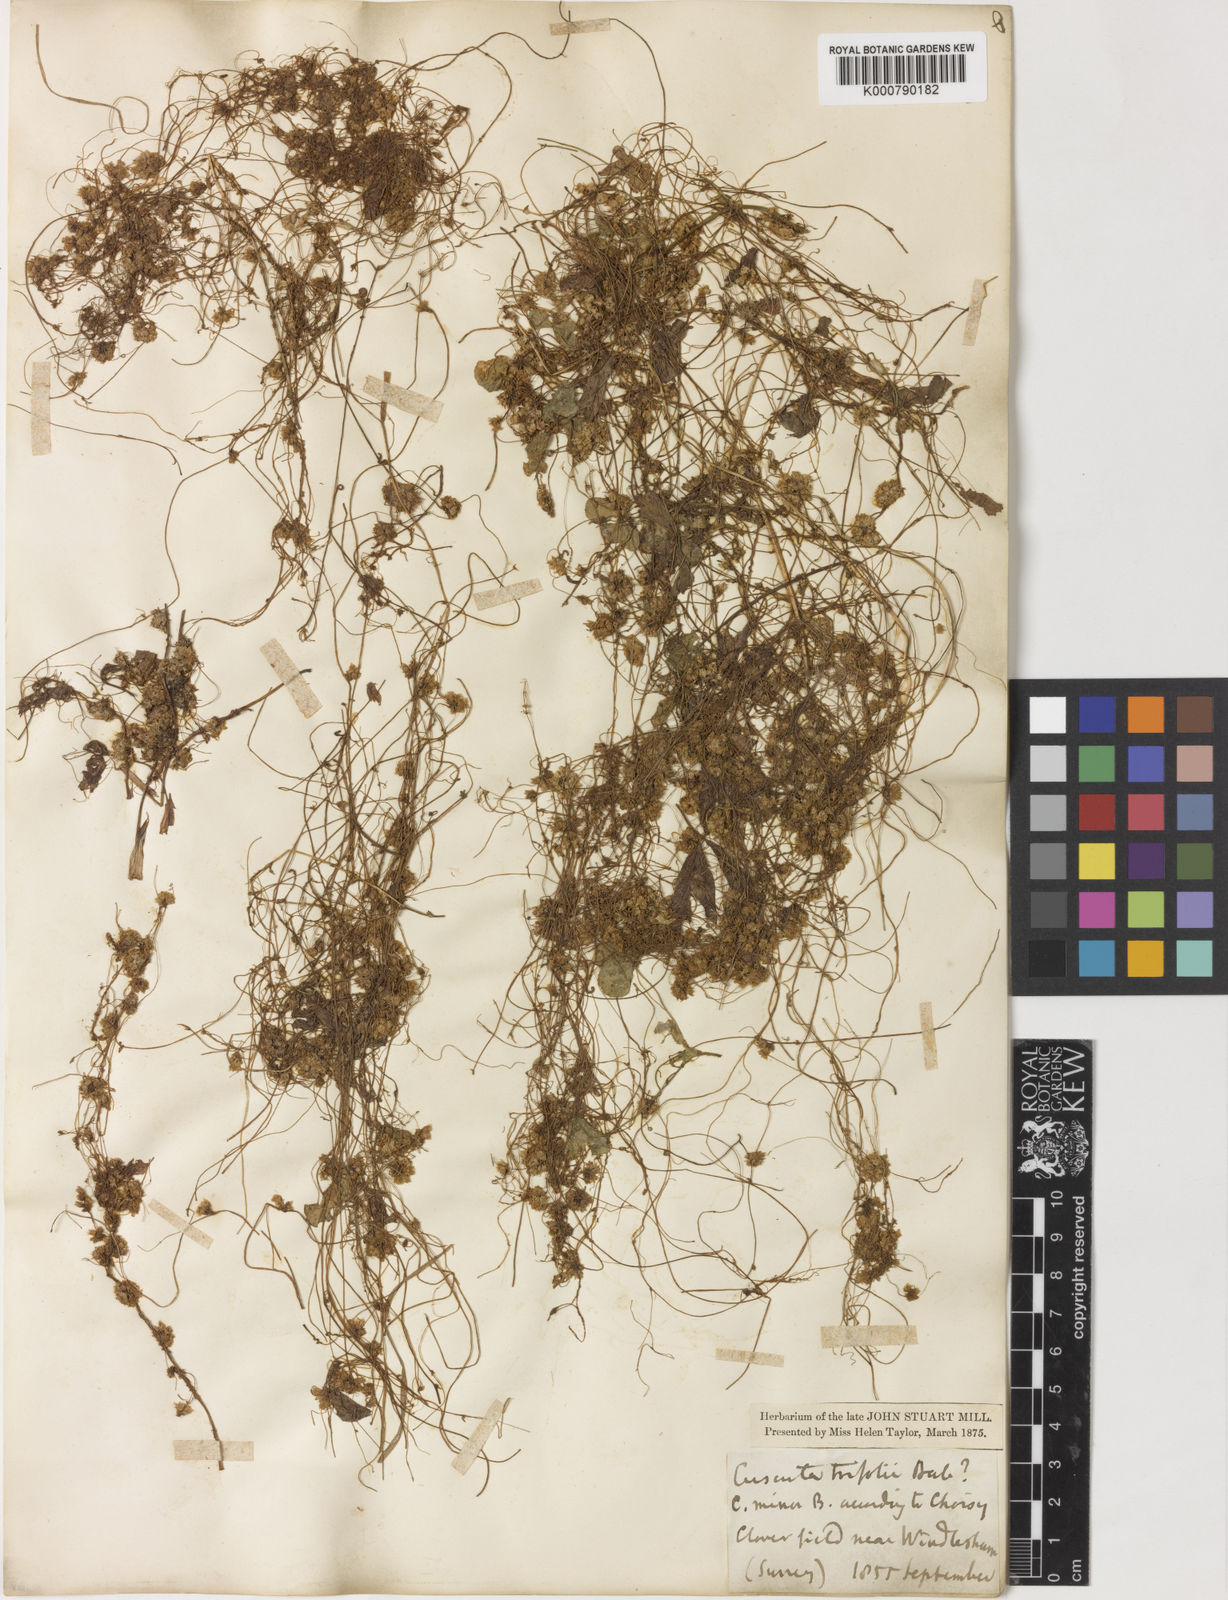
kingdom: Plantae
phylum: Tracheophyta
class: Magnoliopsida
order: Solanales
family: Convolvulaceae
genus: Cuscuta
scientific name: Cuscuta epithymum
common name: Clover dodder
